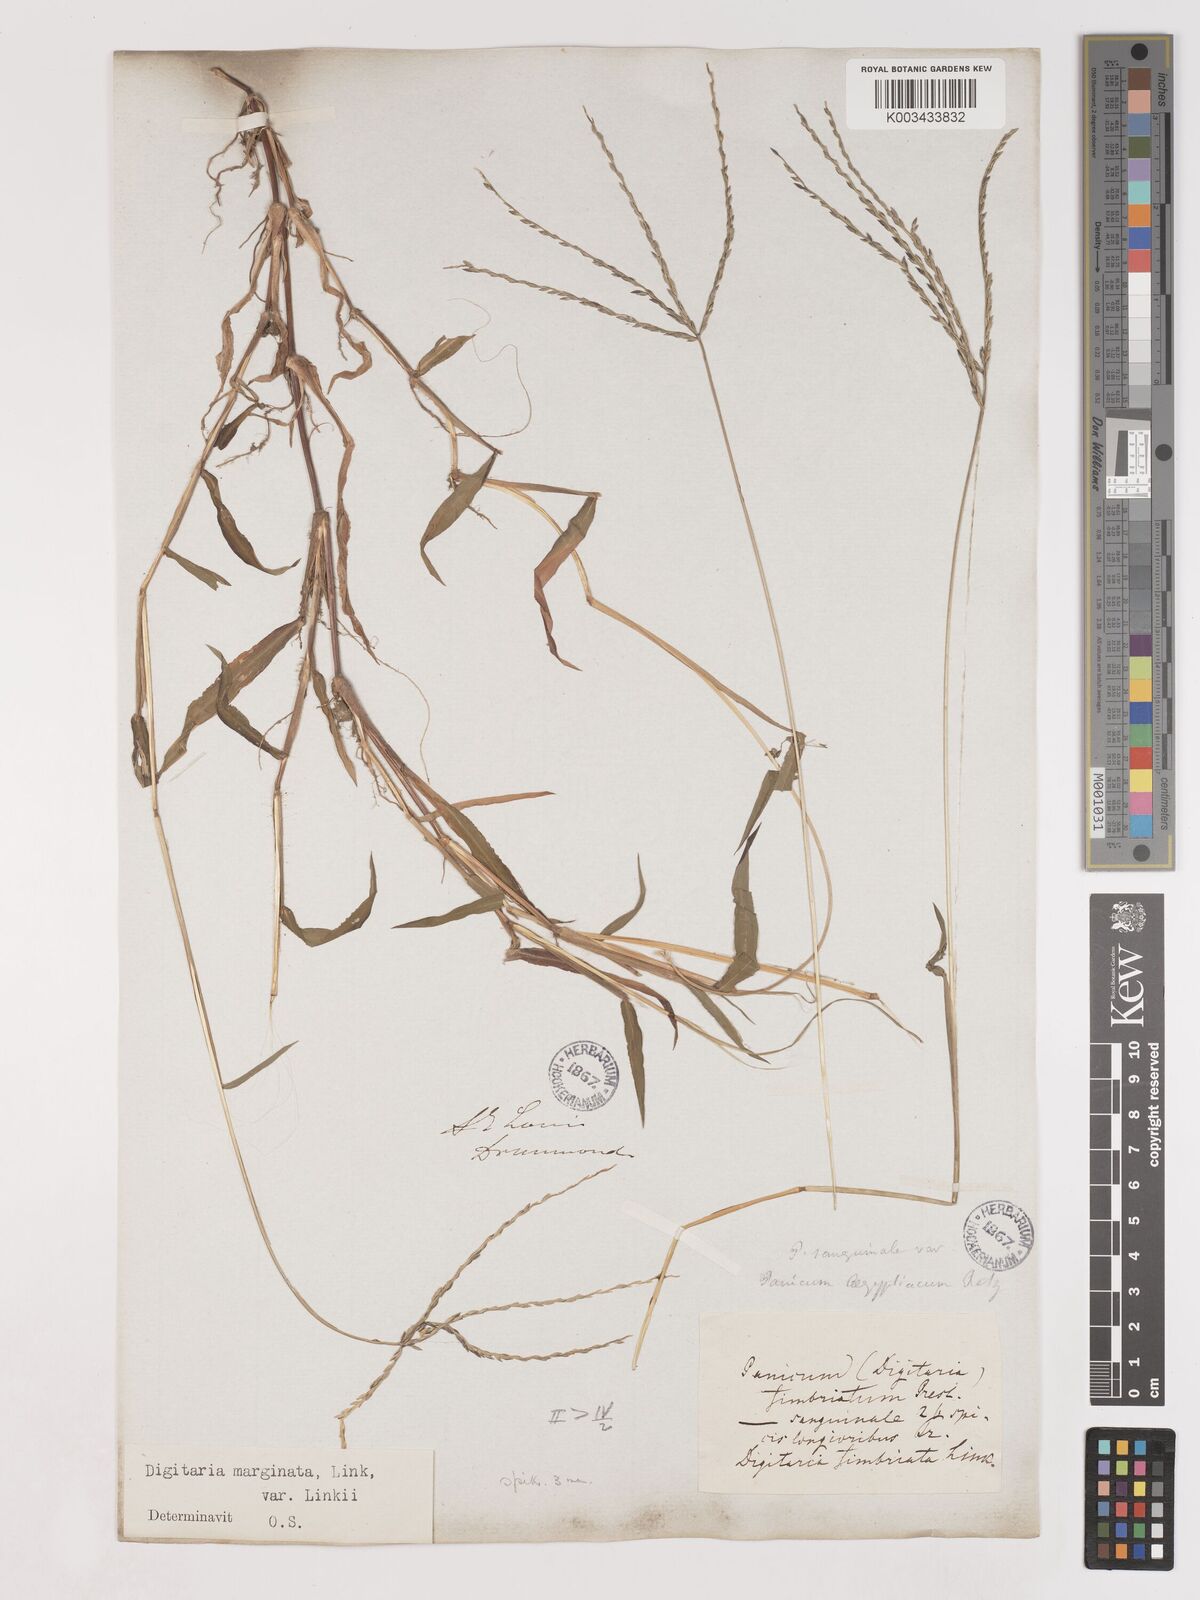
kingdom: Plantae
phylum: Tracheophyta
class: Liliopsida
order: Poales
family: Poaceae
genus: Digitaria
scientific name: Digitaria ciliaris
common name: Tropical finger-grass
